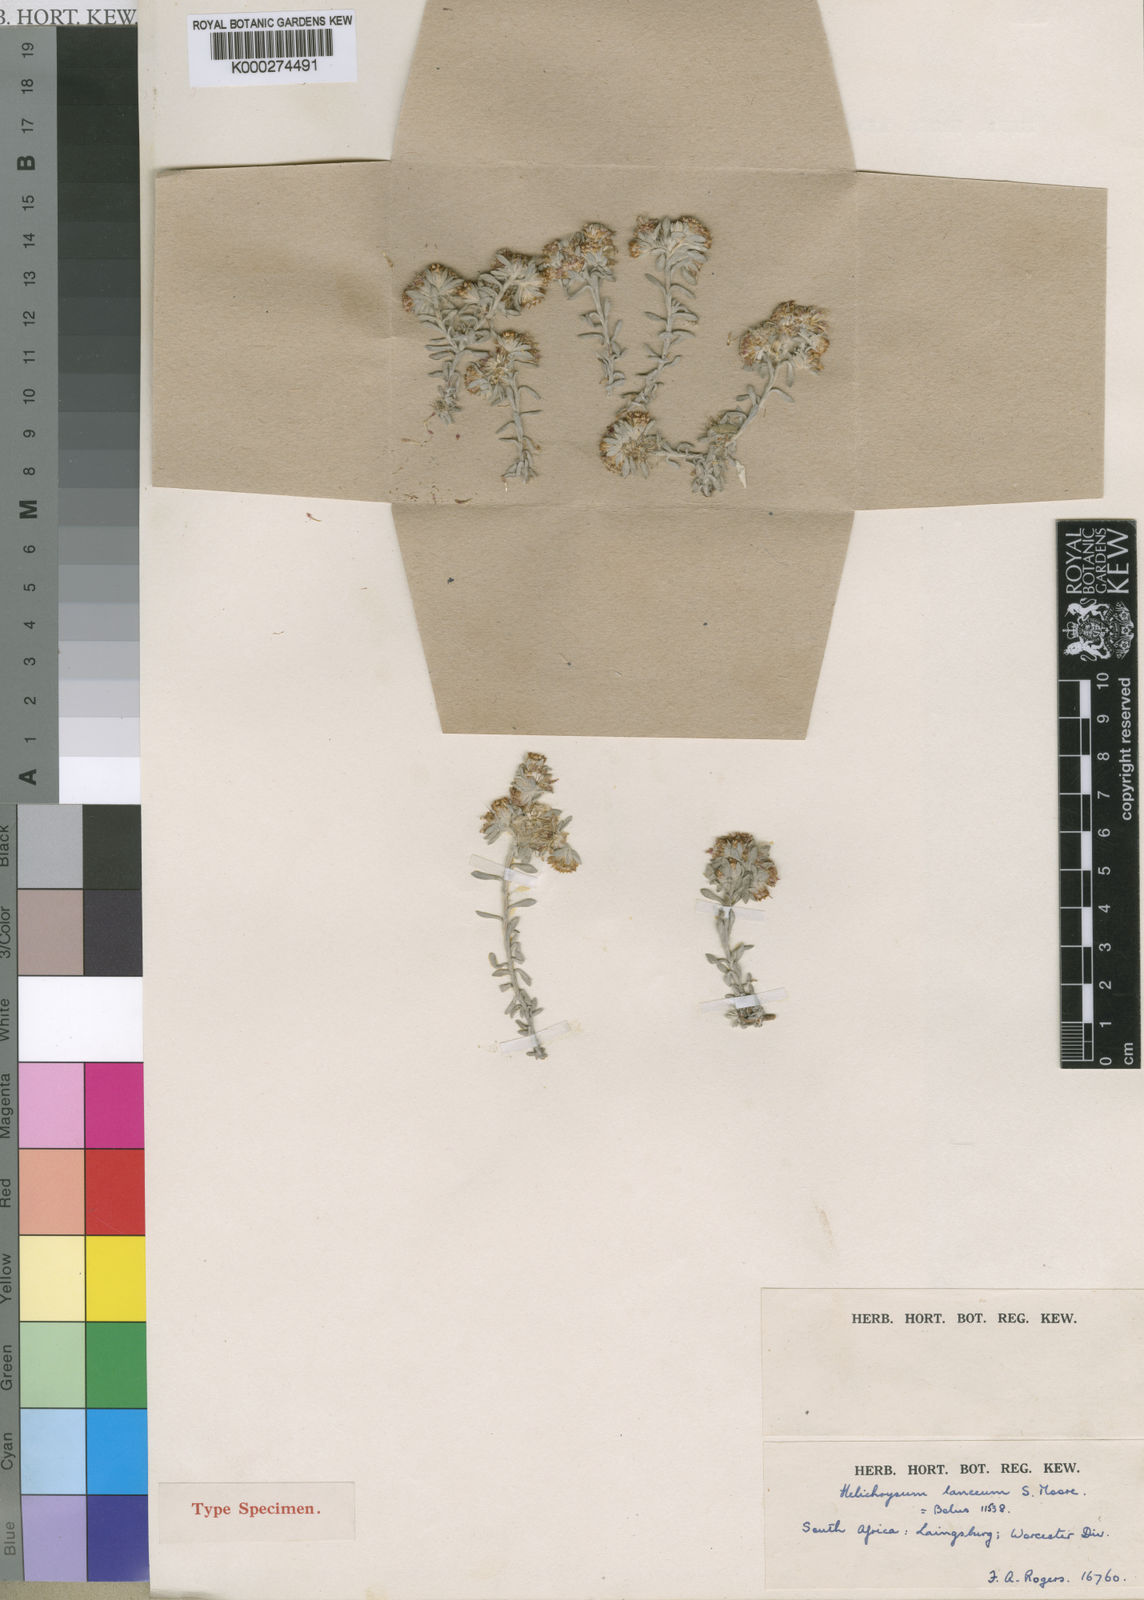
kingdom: Plantae
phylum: Tracheophyta
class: Magnoliopsida
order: Asterales
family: Asteraceae
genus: Helichrysum
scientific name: Helichrysum pumilio
